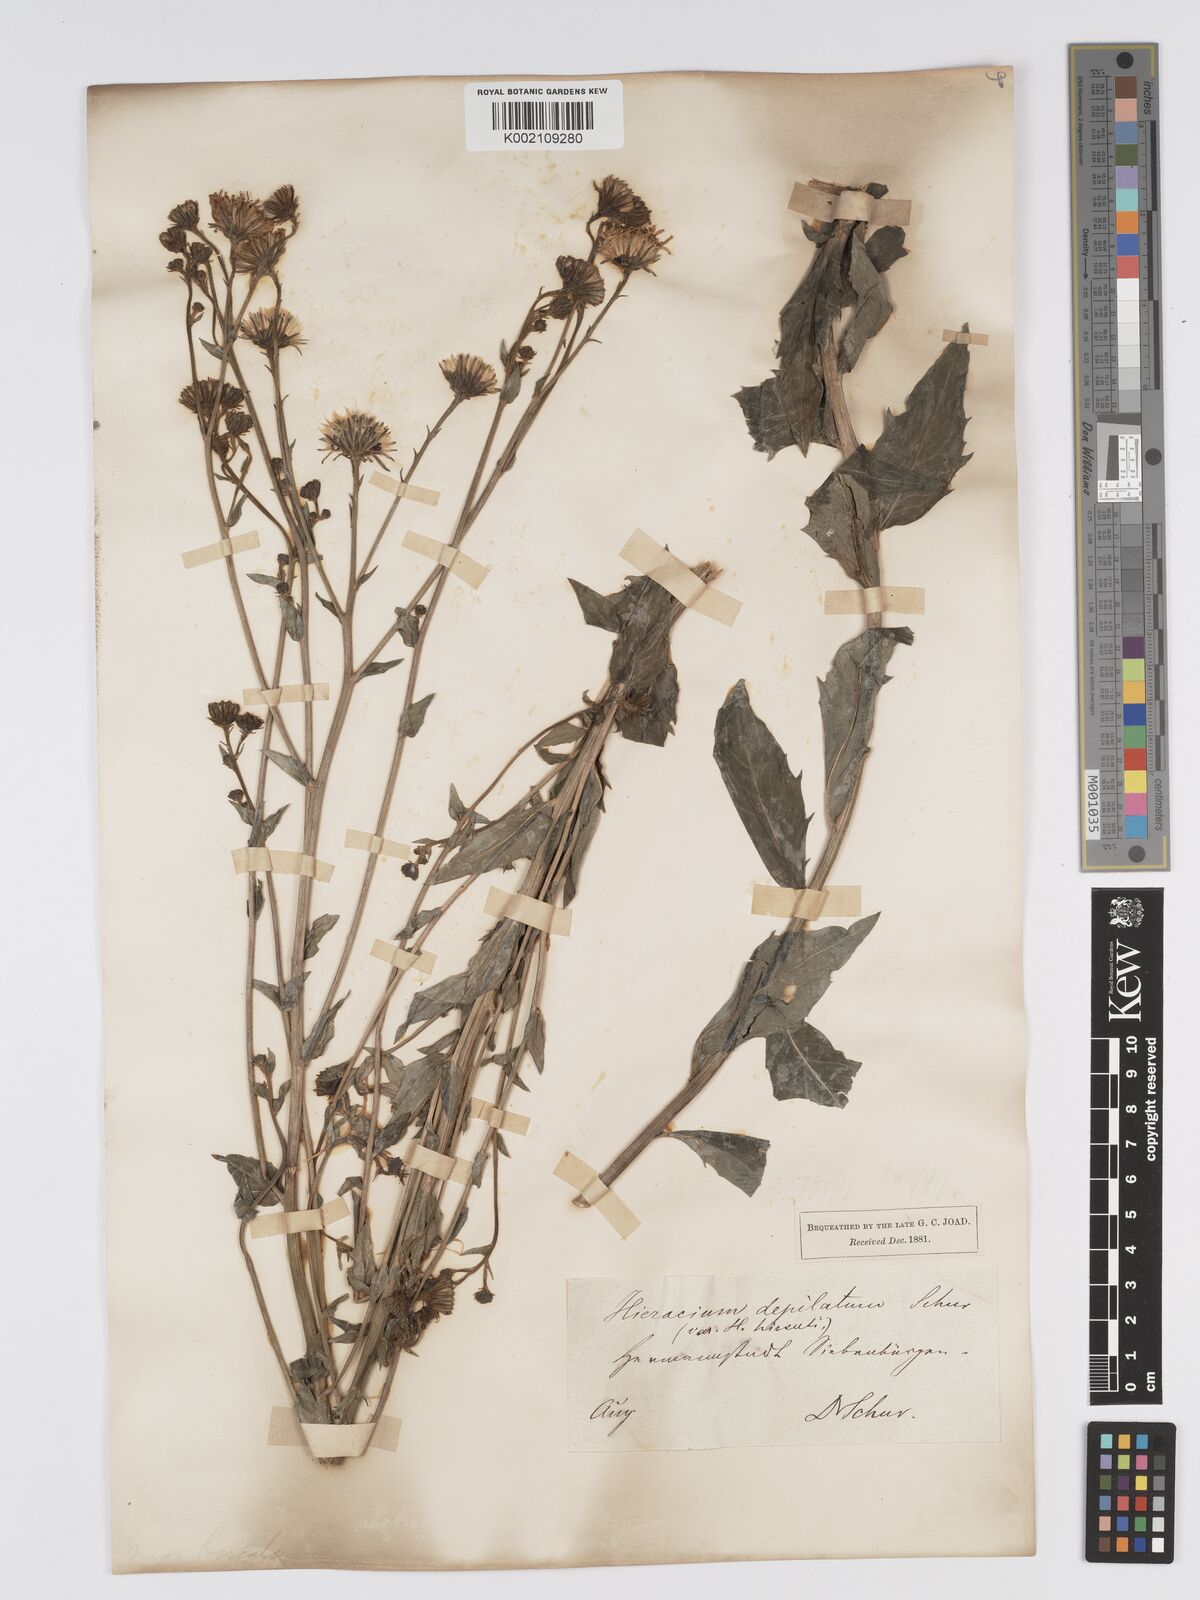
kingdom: Plantae
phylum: Tracheophyta
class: Magnoliopsida
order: Asterales
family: Asteraceae
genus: Hieracium
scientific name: Hieracium lycopifolium
